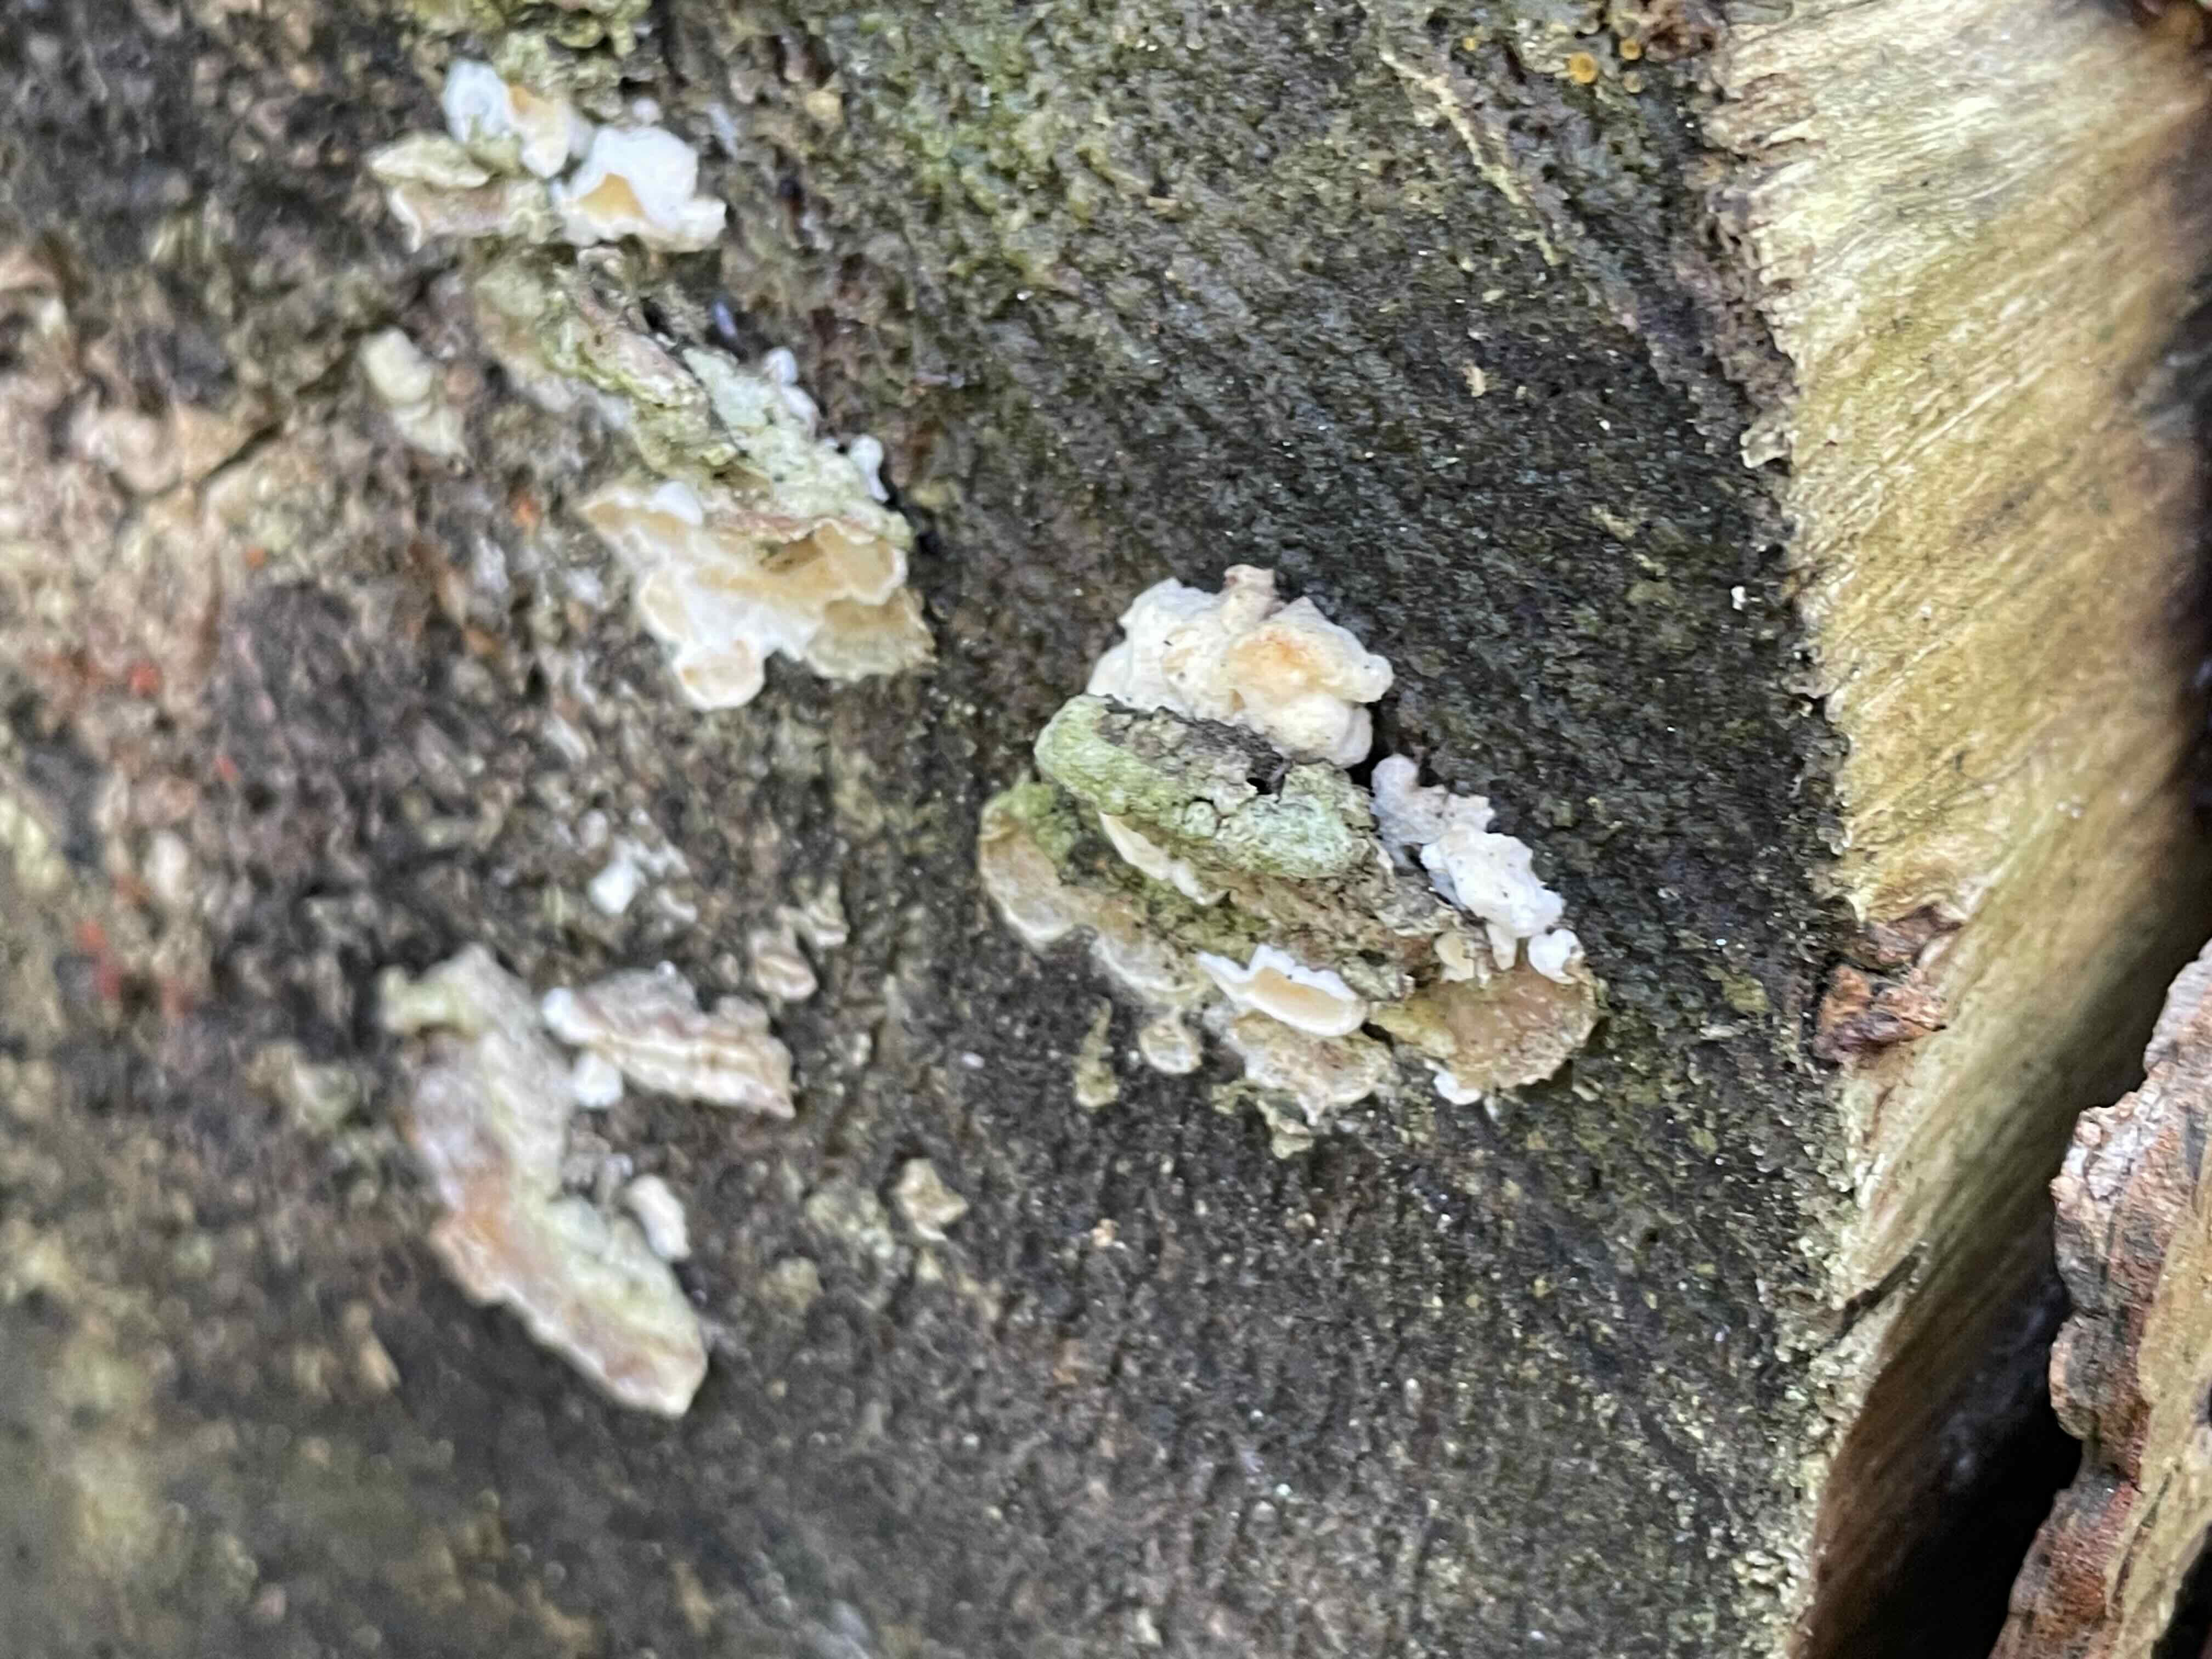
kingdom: Fungi
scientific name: Fungi
